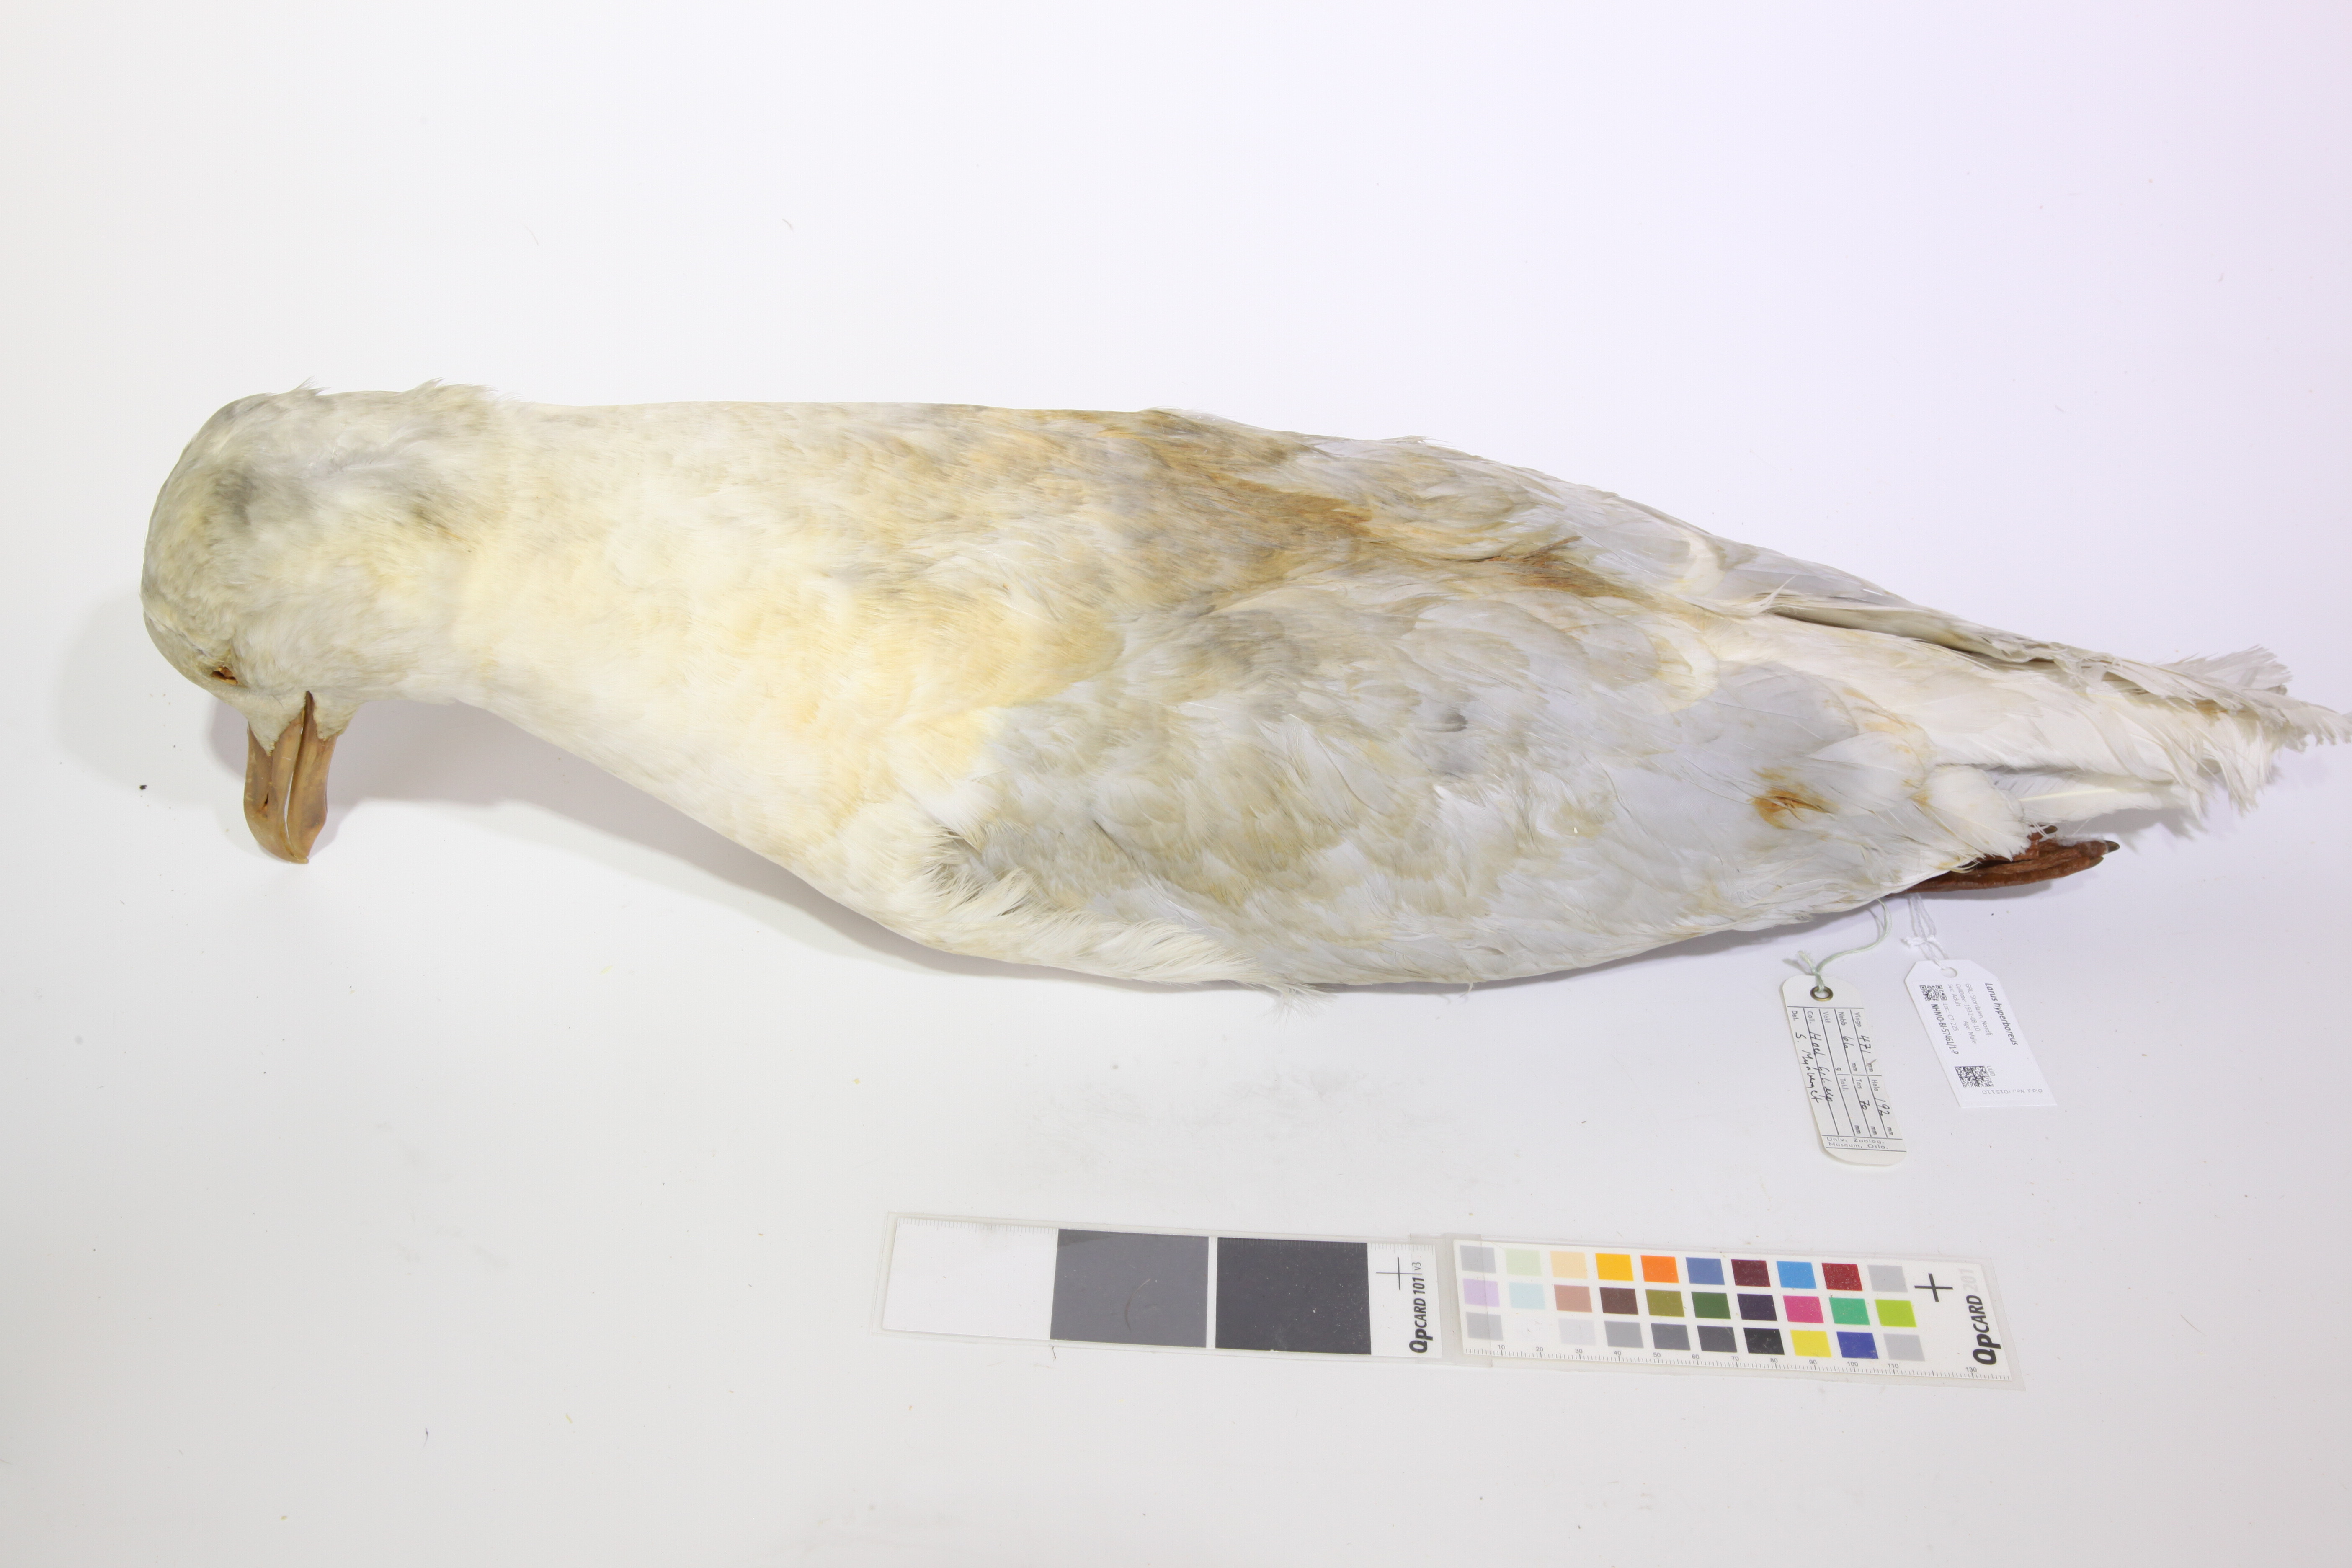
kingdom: Animalia
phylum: Chordata
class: Aves
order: Charadriiformes
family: Laridae
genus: Larus
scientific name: Larus hyperboreus
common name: Glaucous gull
